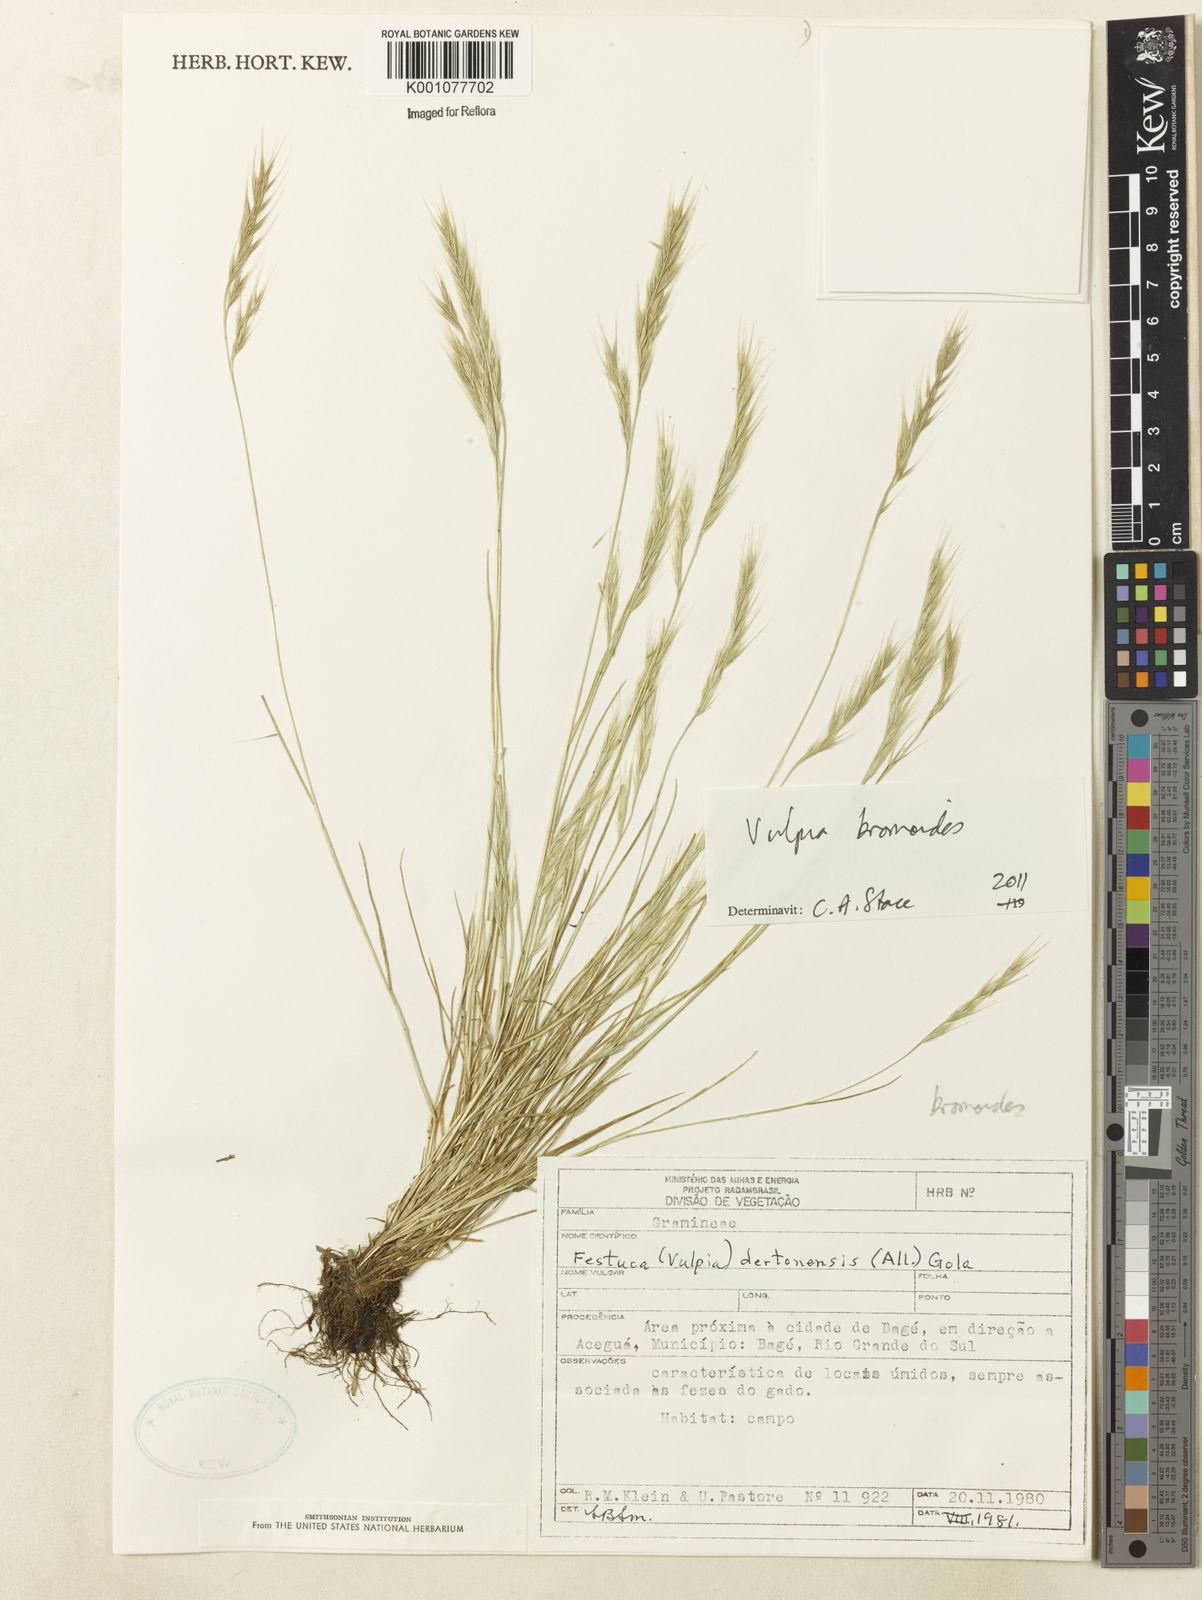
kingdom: Plantae
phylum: Tracheophyta
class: Liliopsida
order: Poales
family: Poaceae
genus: Festuca
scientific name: Festuca bromoides
